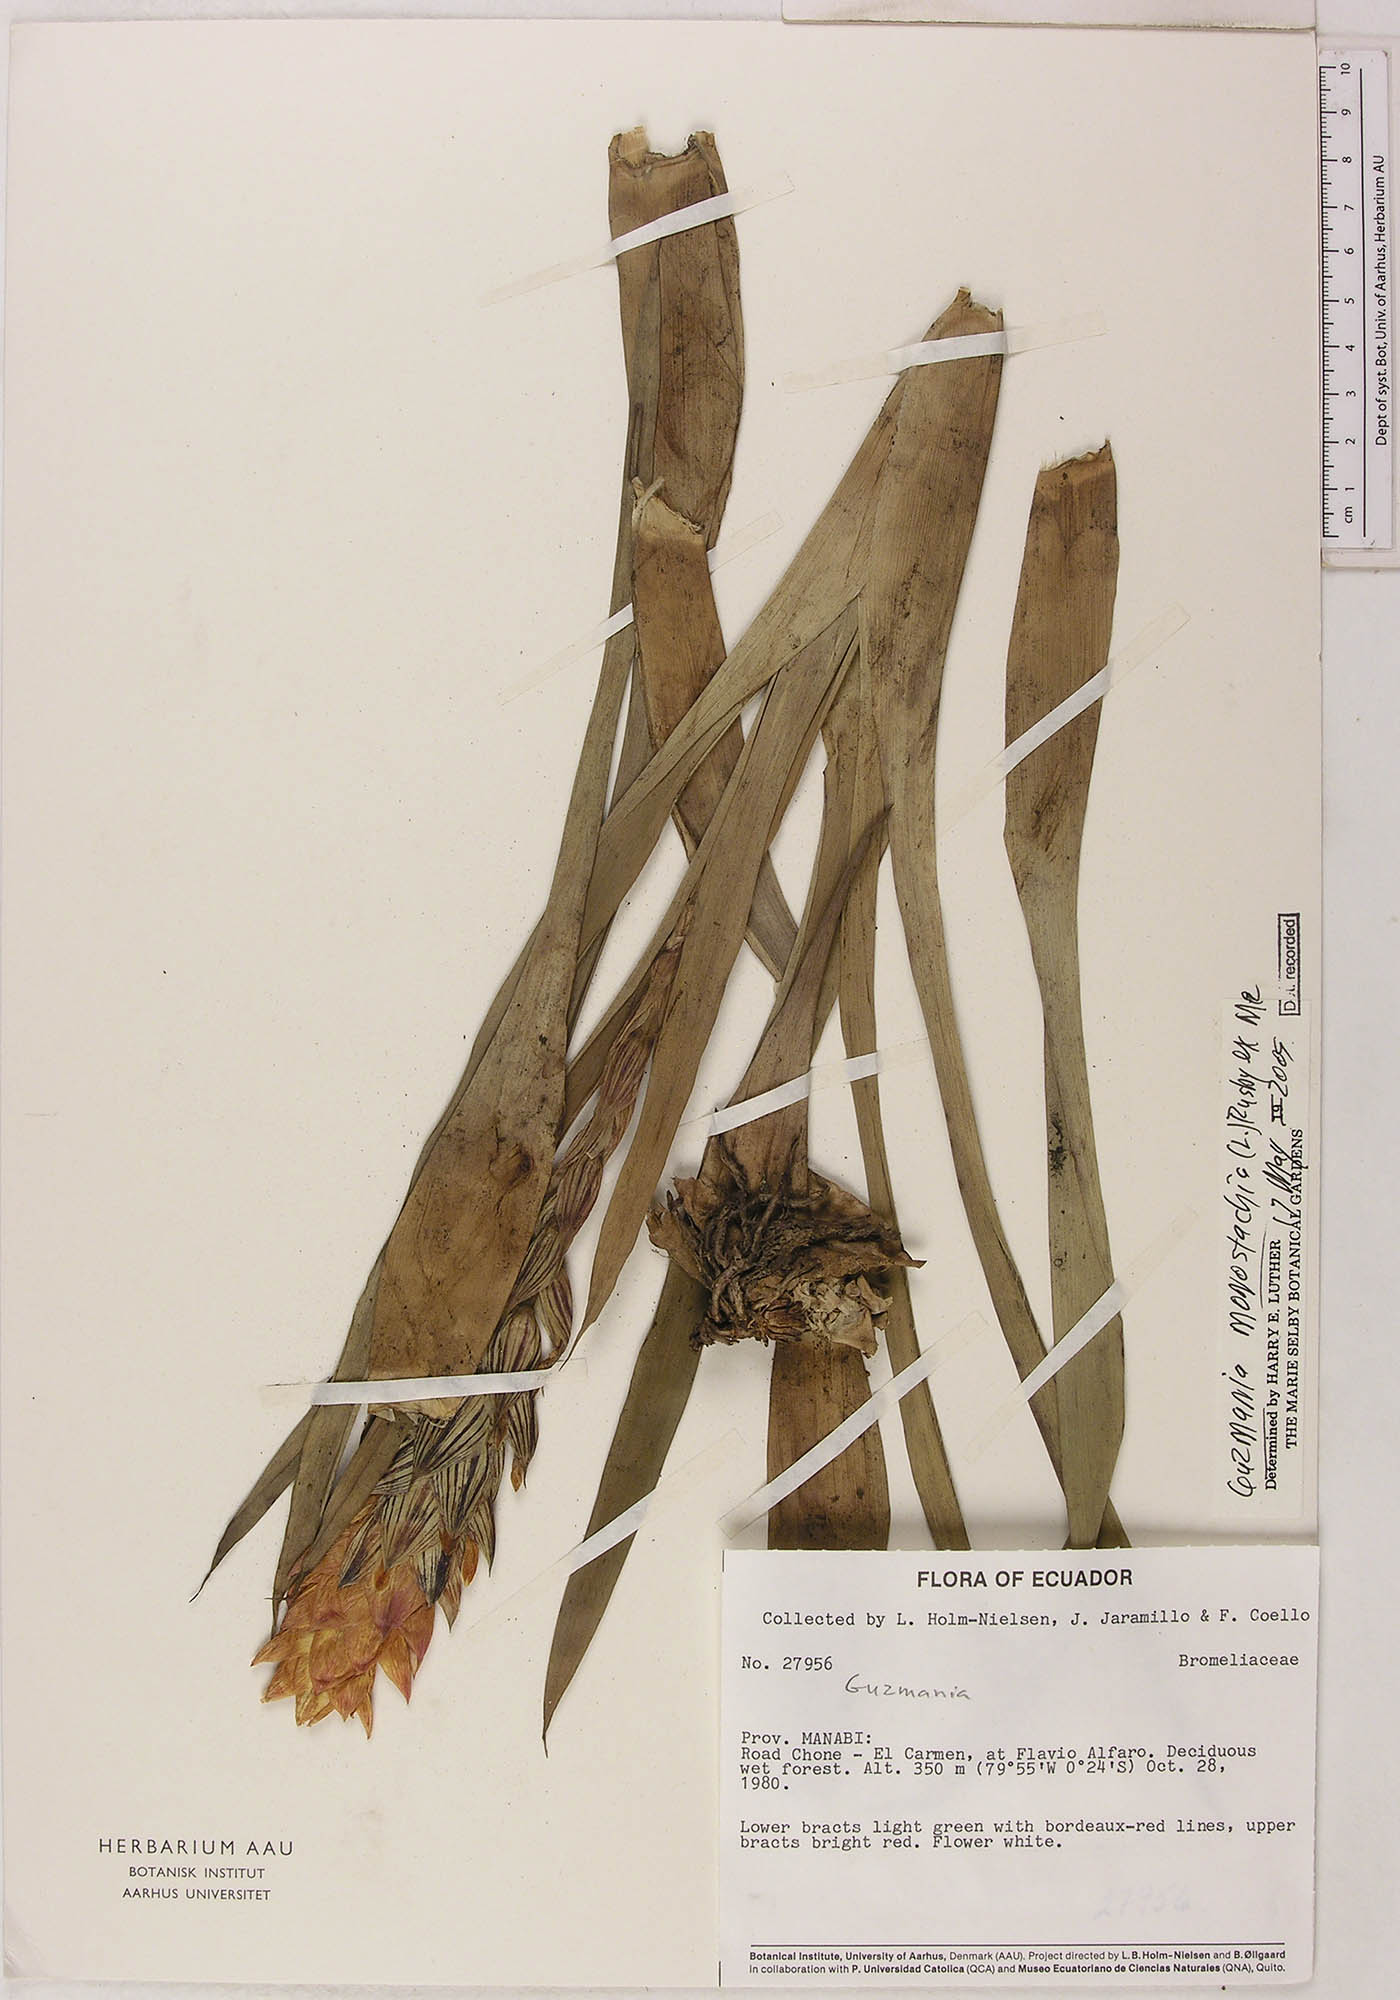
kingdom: Plantae
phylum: Tracheophyta
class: Liliopsida
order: Poales
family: Bromeliaceae
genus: Guzmania
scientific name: Guzmania monostachia
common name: West indian tufted airplant
